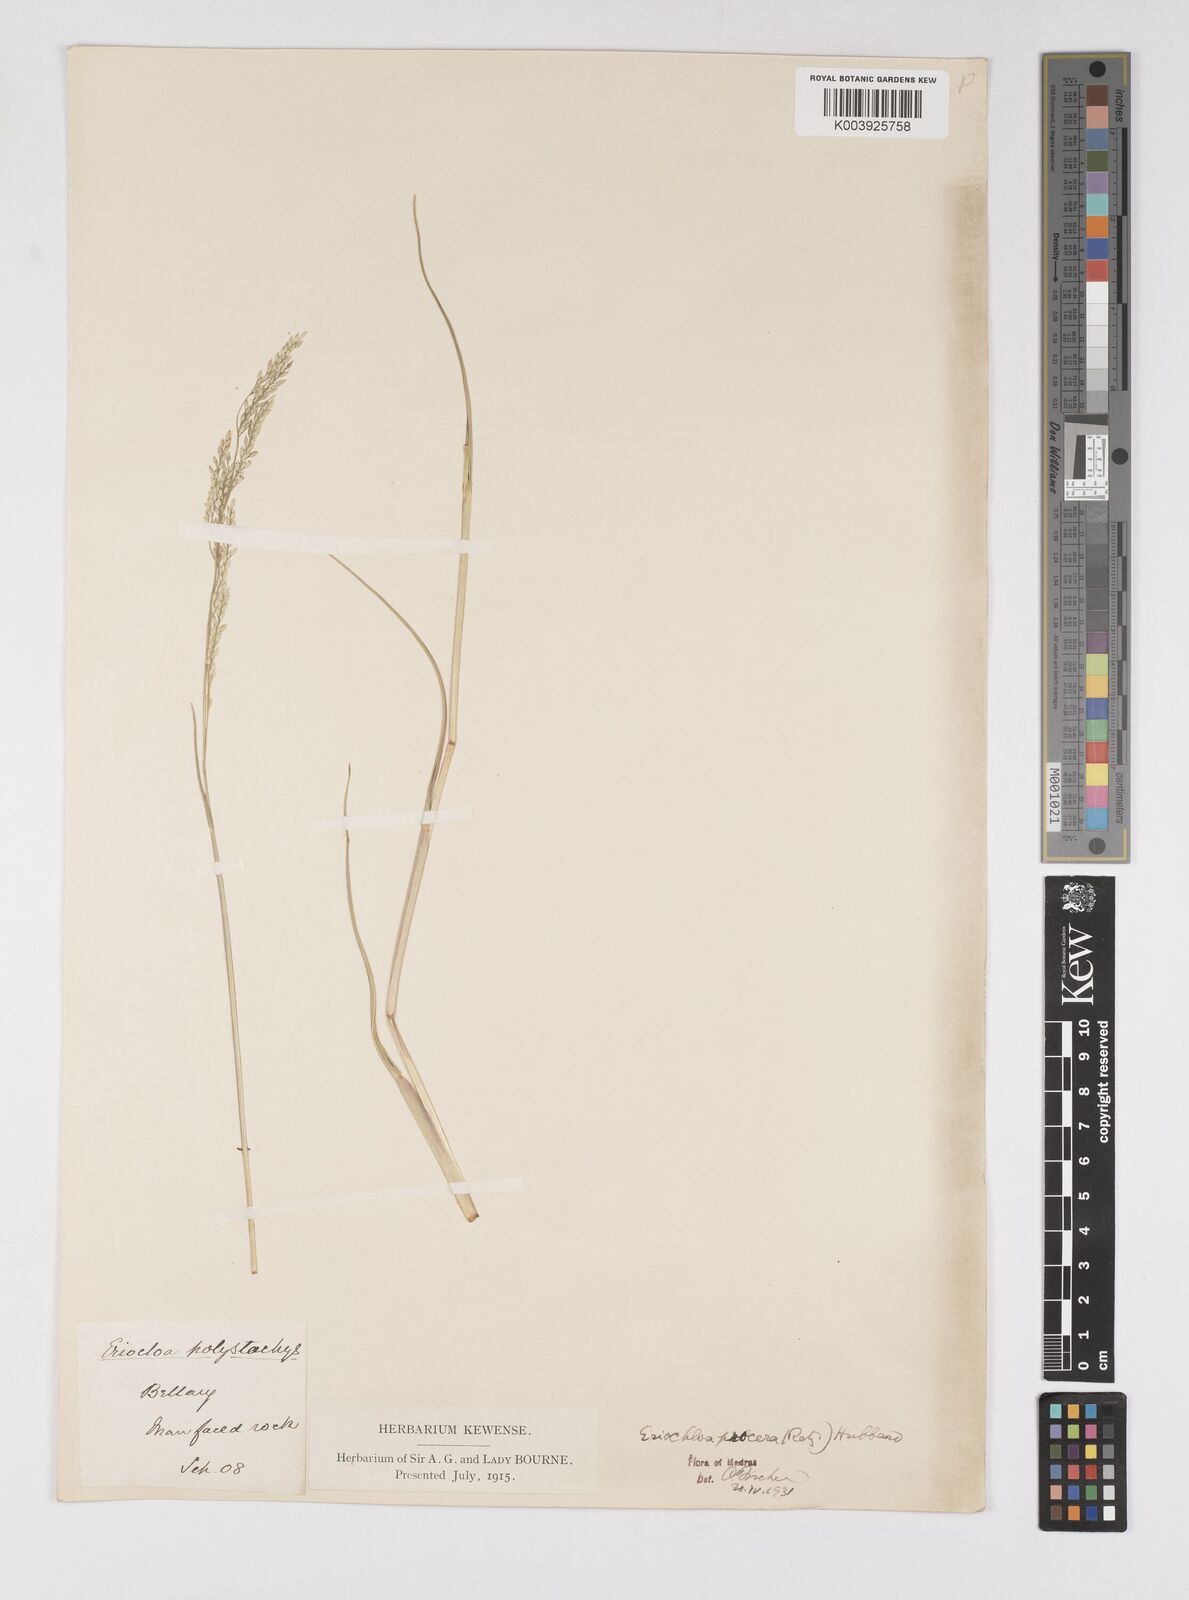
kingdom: Plantae
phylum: Tracheophyta
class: Liliopsida
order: Poales
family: Poaceae
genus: Eriochloa
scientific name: Eriochloa procera
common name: Spring grass
